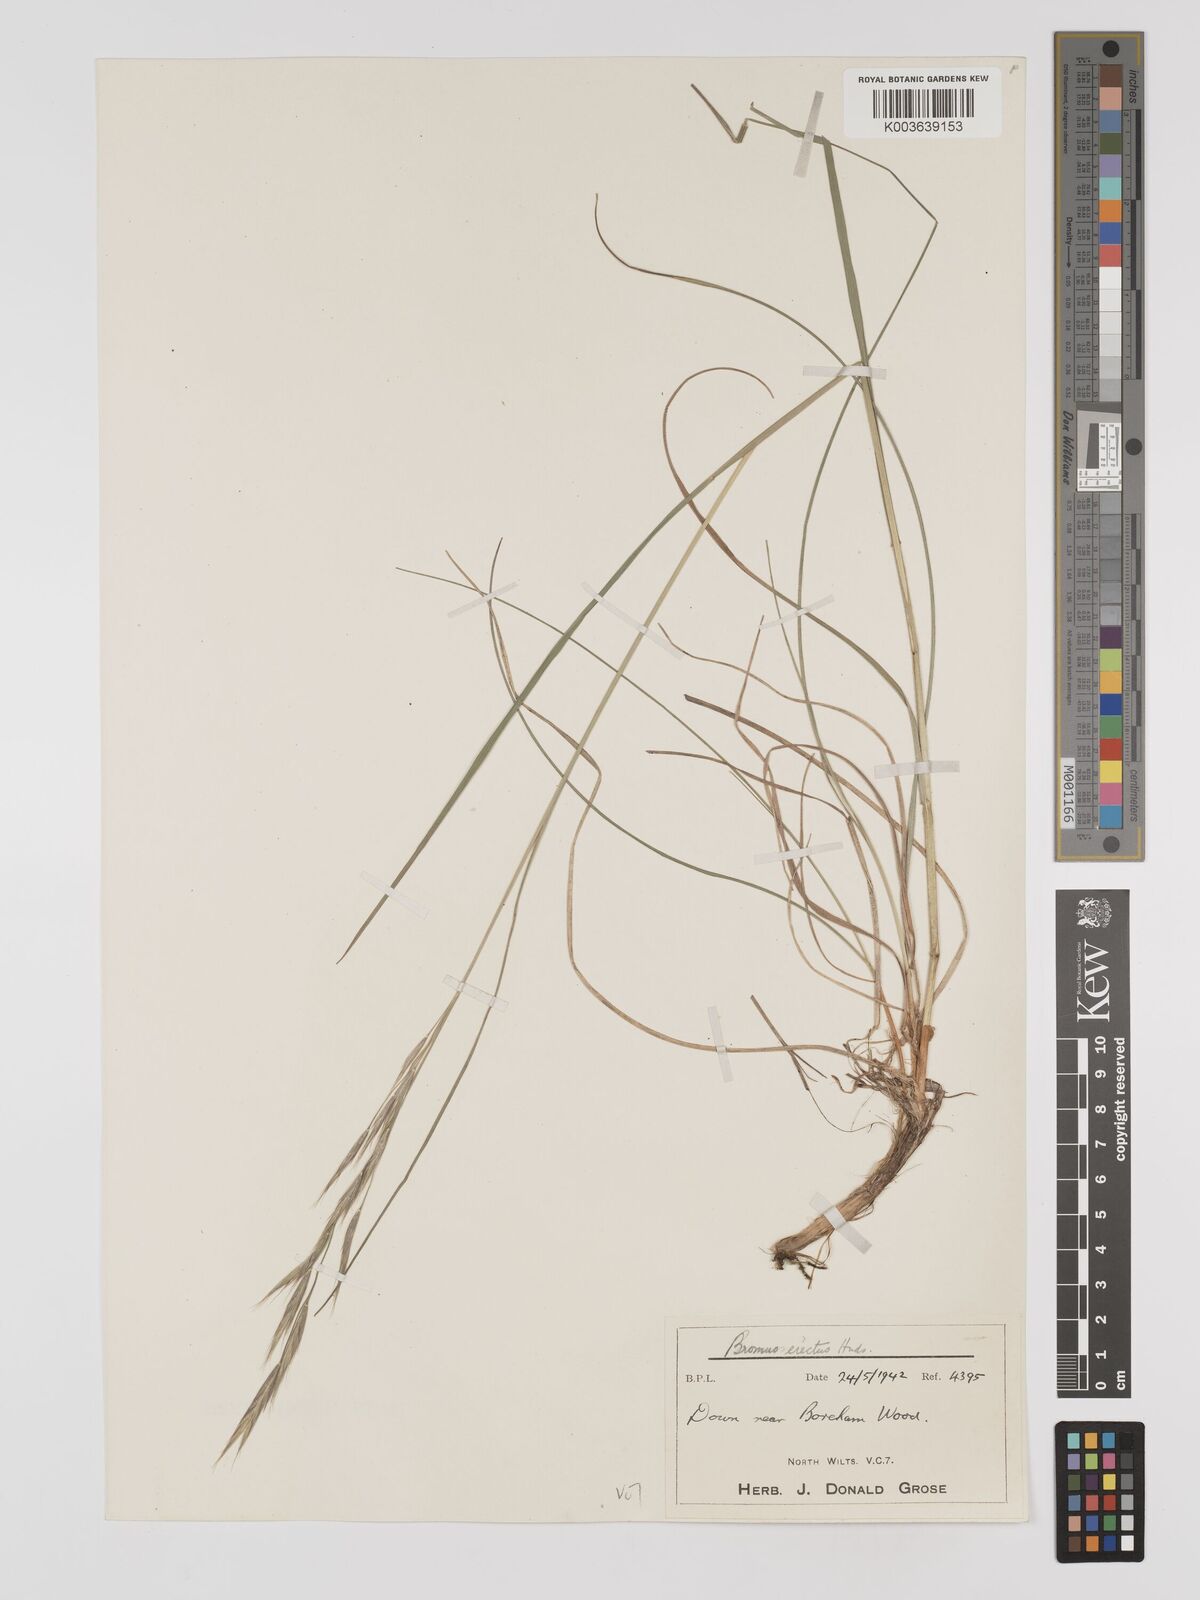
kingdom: Plantae
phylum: Tracheophyta
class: Liliopsida
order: Poales
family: Poaceae
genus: Bromus
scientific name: Bromus erectus
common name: Erect brome
